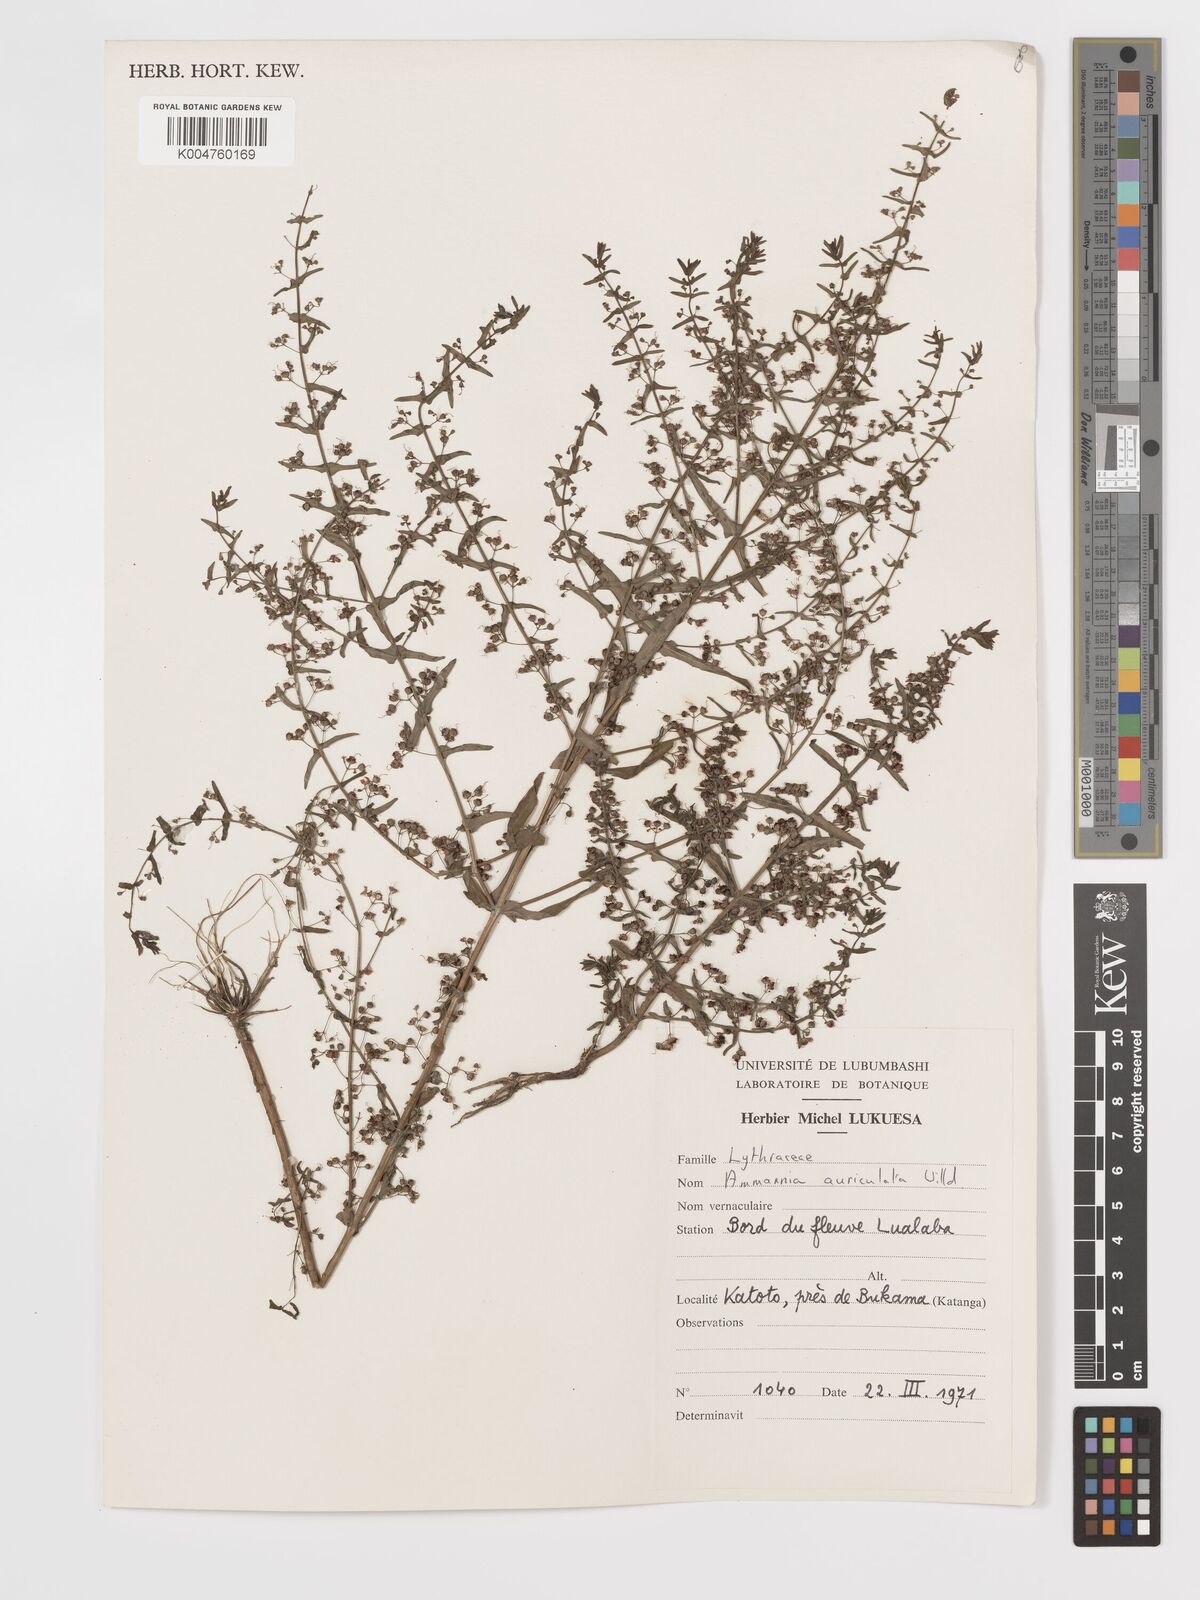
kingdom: Plantae
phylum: Tracheophyta
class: Magnoliopsida
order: Myrtales
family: Lythraceae
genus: Ammannia
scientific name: Ammannia auriculata
